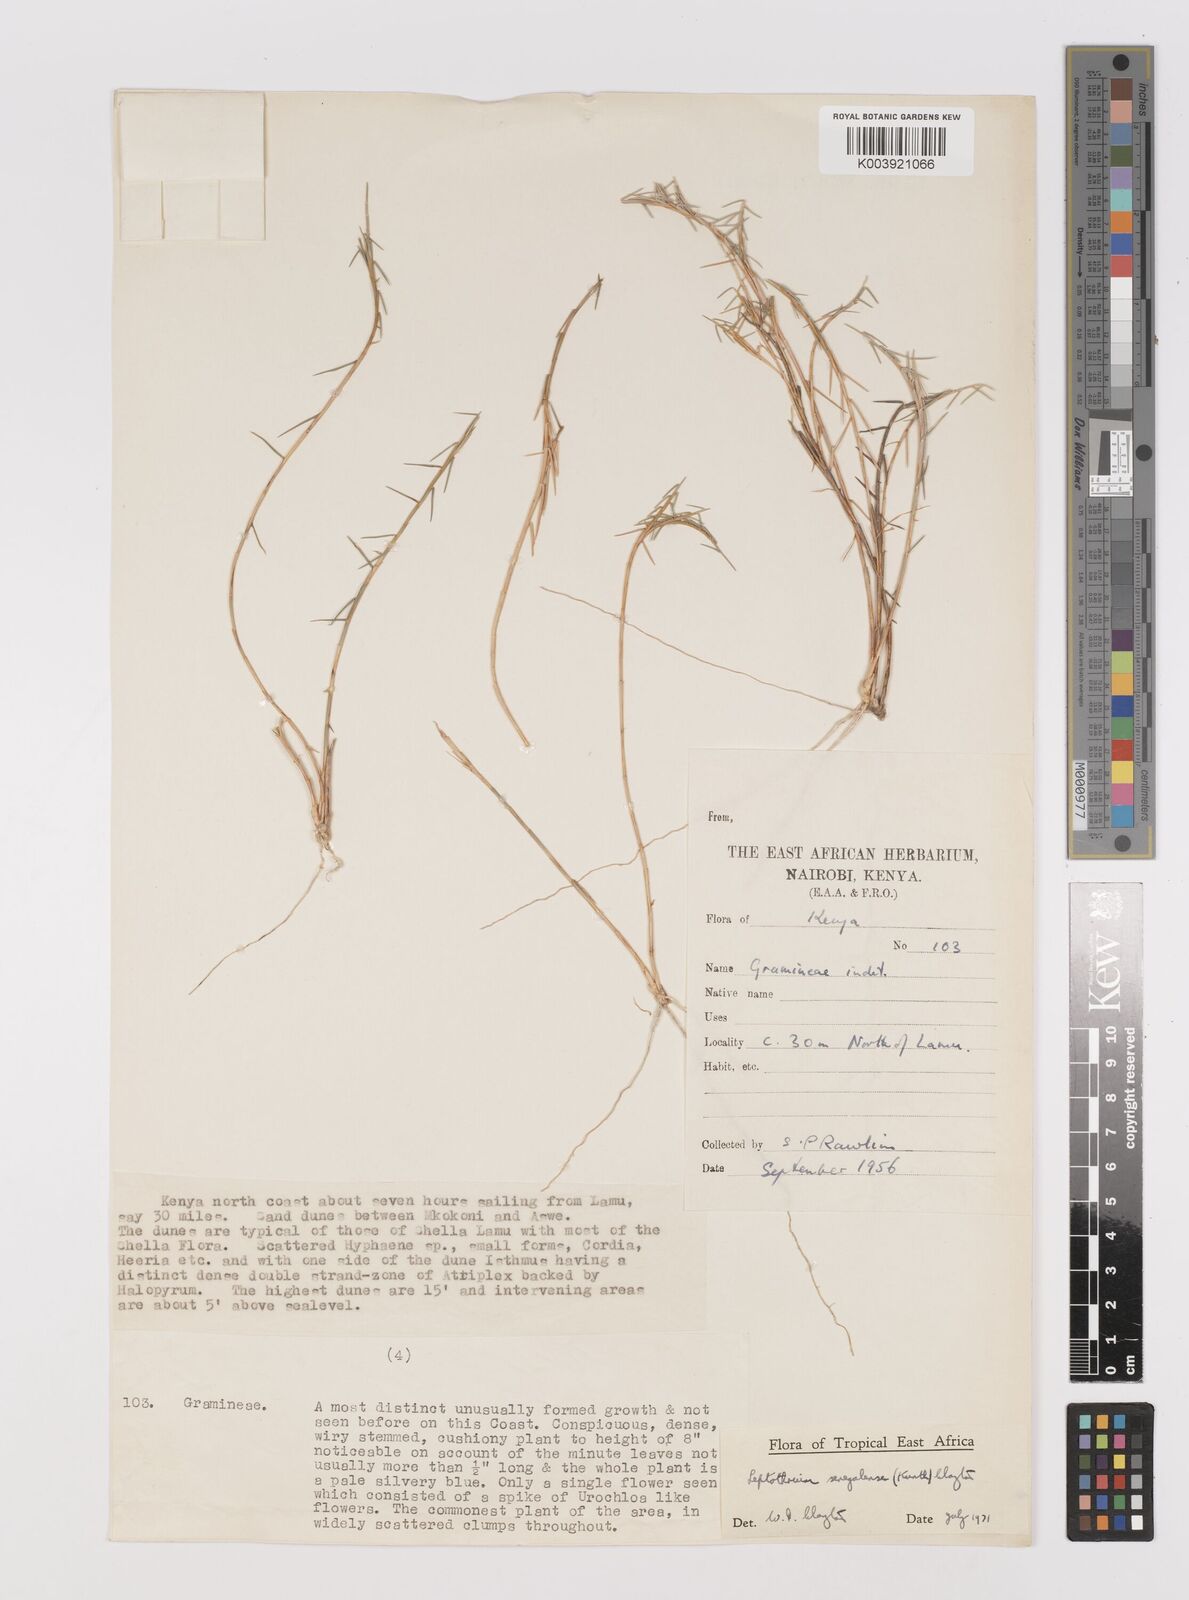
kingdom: Plantae
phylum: Tracheophyta
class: Liliopsida
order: Poales
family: Poaceae
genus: Leptothrium
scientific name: Leptothrium senegalense
